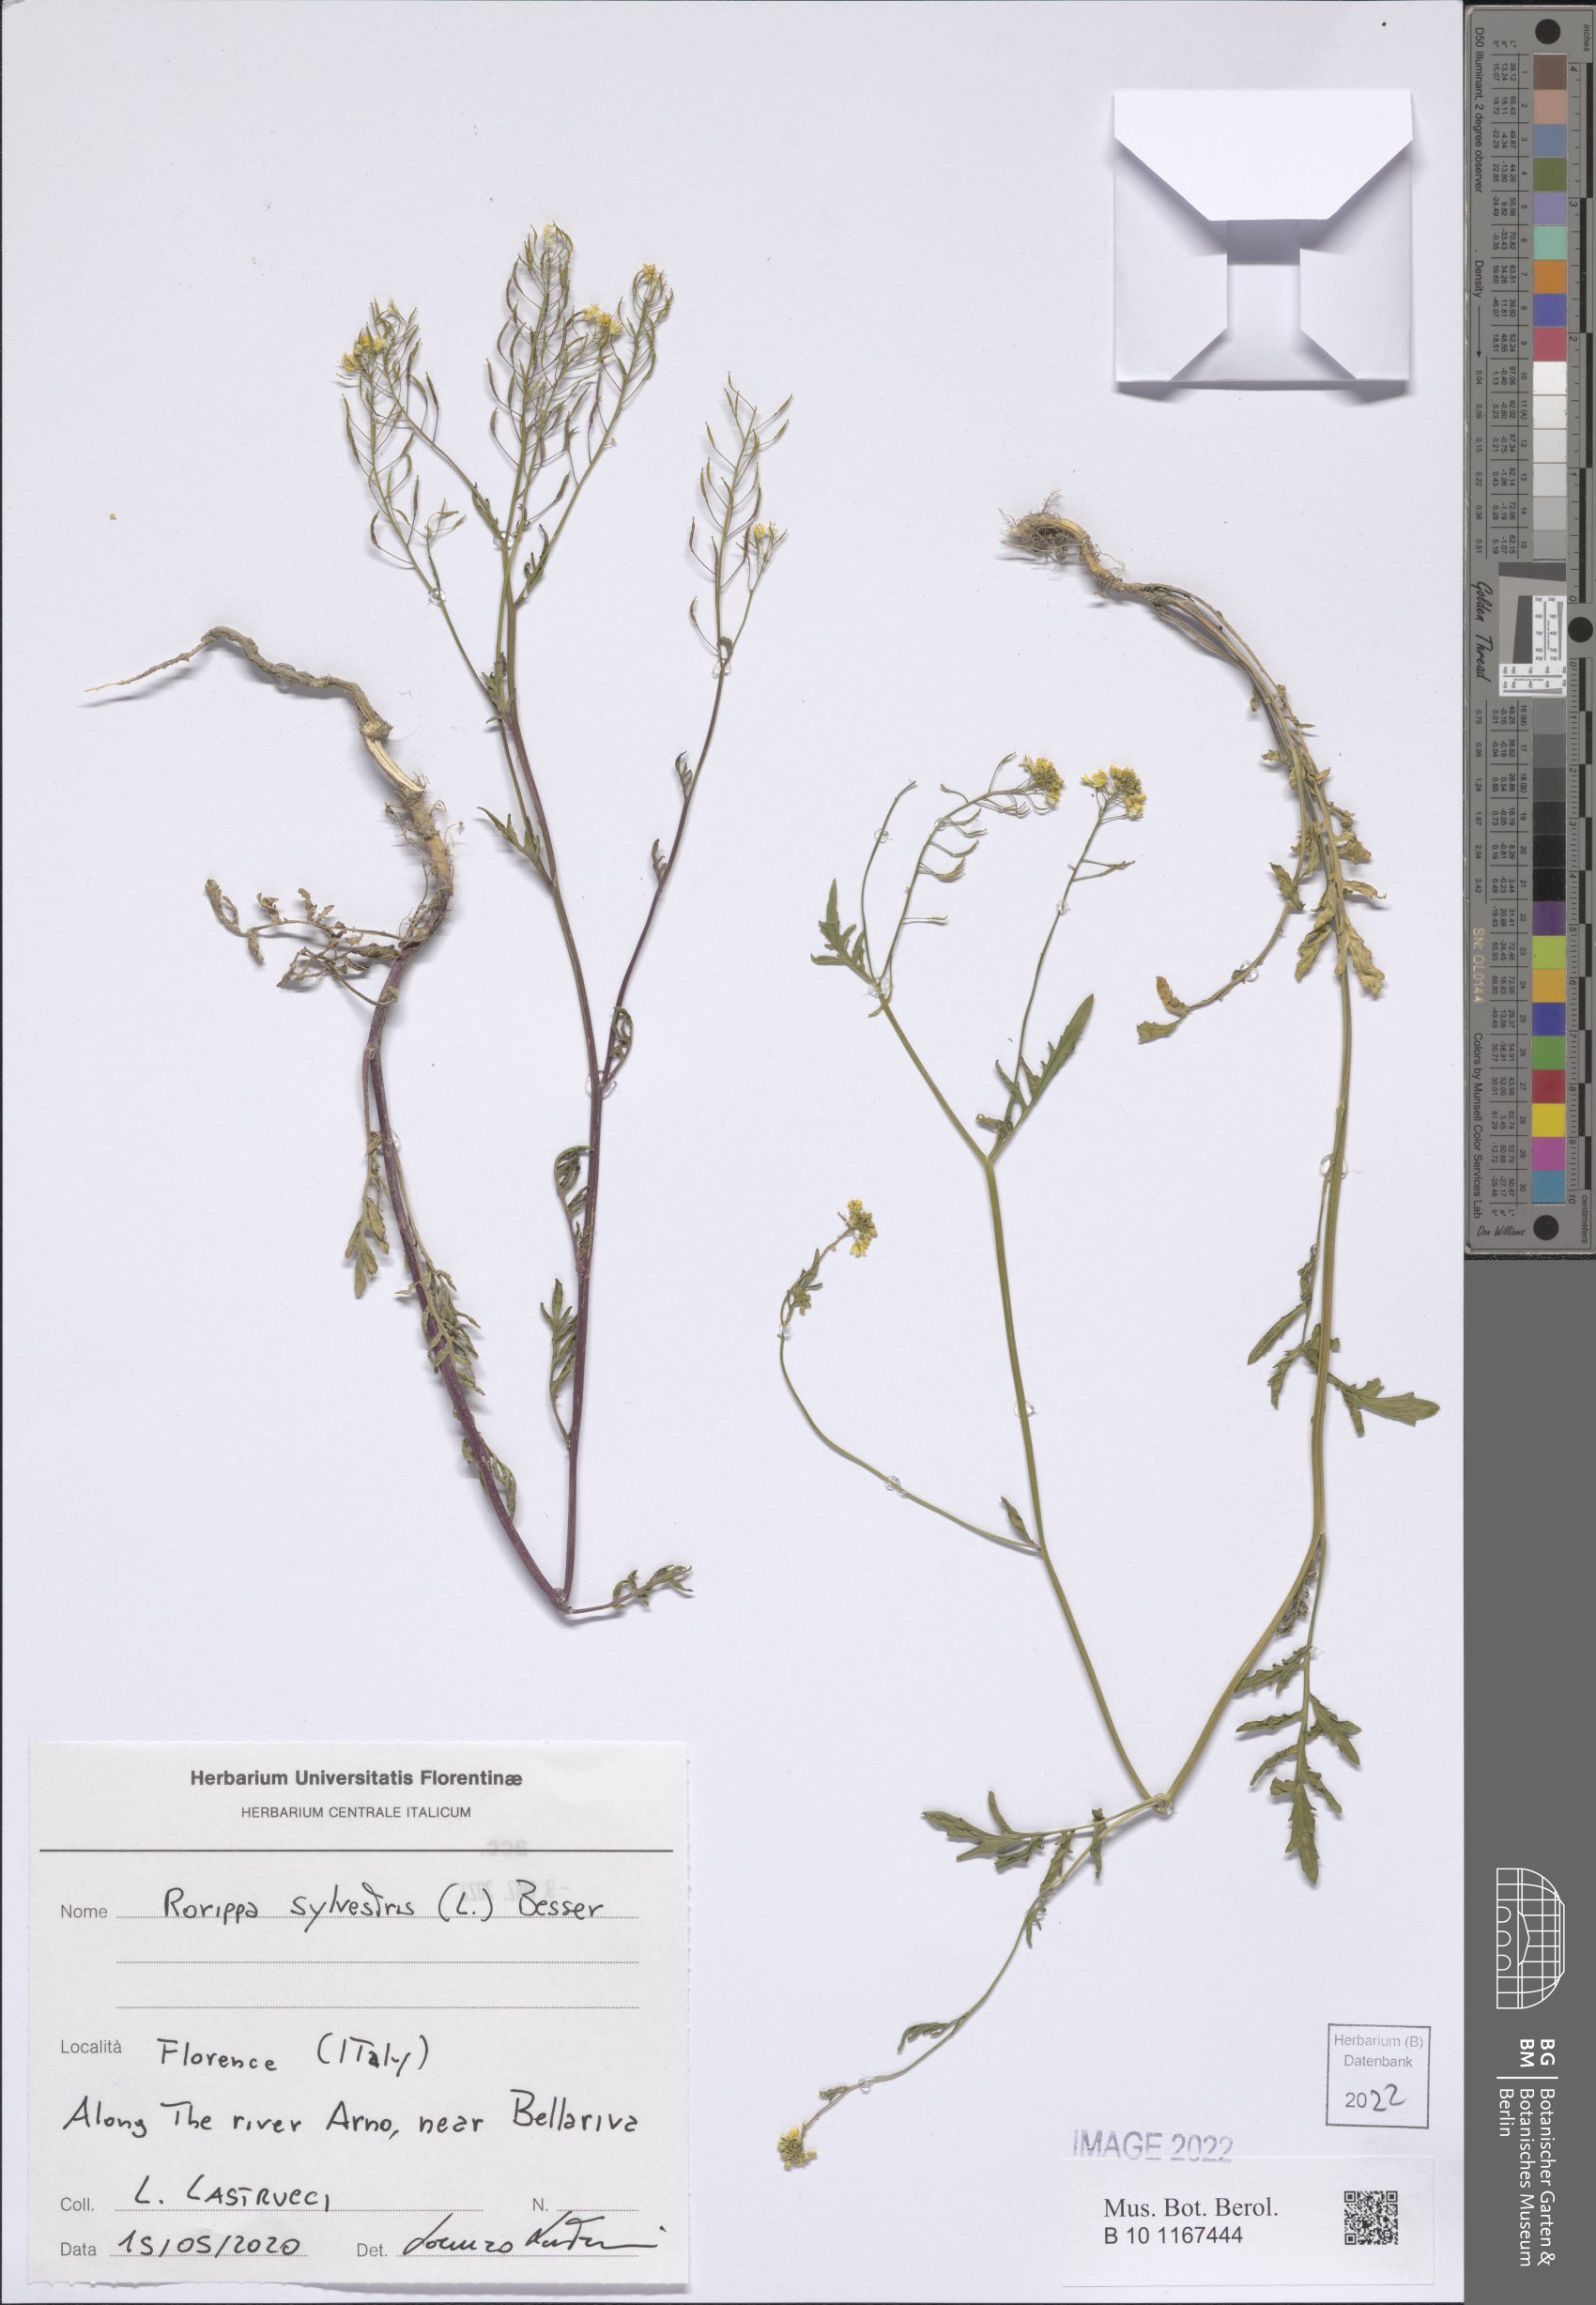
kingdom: Plantae
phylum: Tracheophyta
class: Magnoliopsida
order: Brassicales
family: Brassicaceae
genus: Rorippa
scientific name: Rorippa sylvestris
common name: Creeping yellowcress
